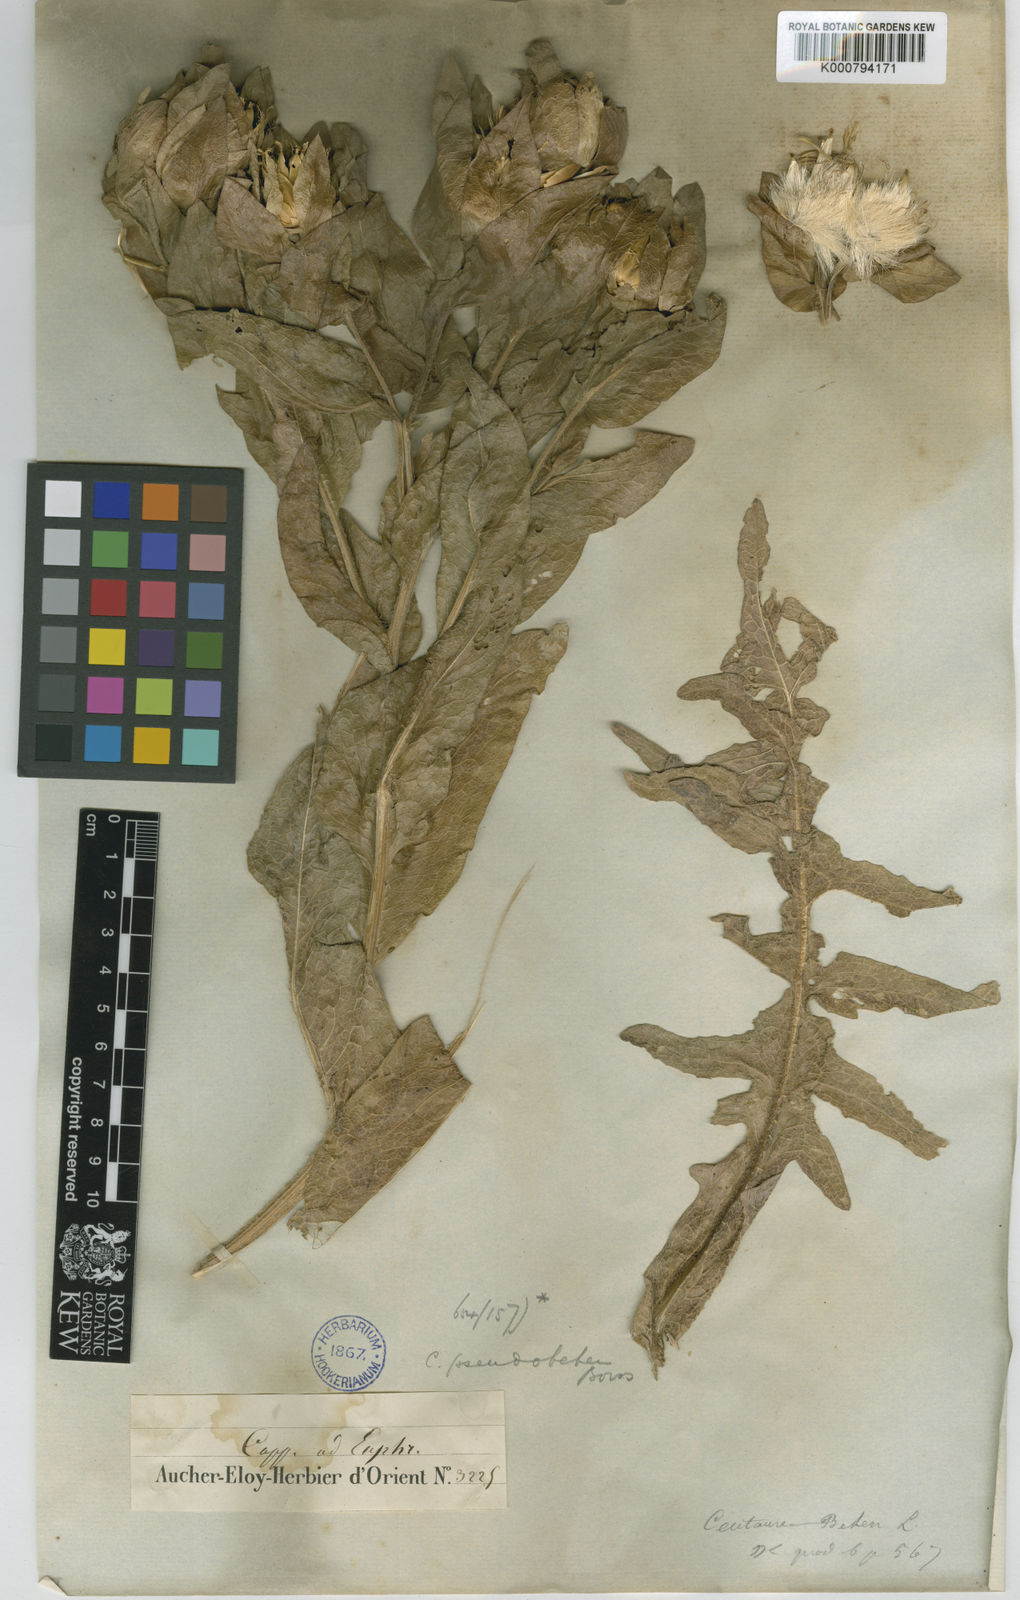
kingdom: Plantae
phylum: Tracheophyta
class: Magnoliopsida
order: Asterales
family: Asteraceae
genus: Centaurea
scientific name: Centaurea polypodiifolia
